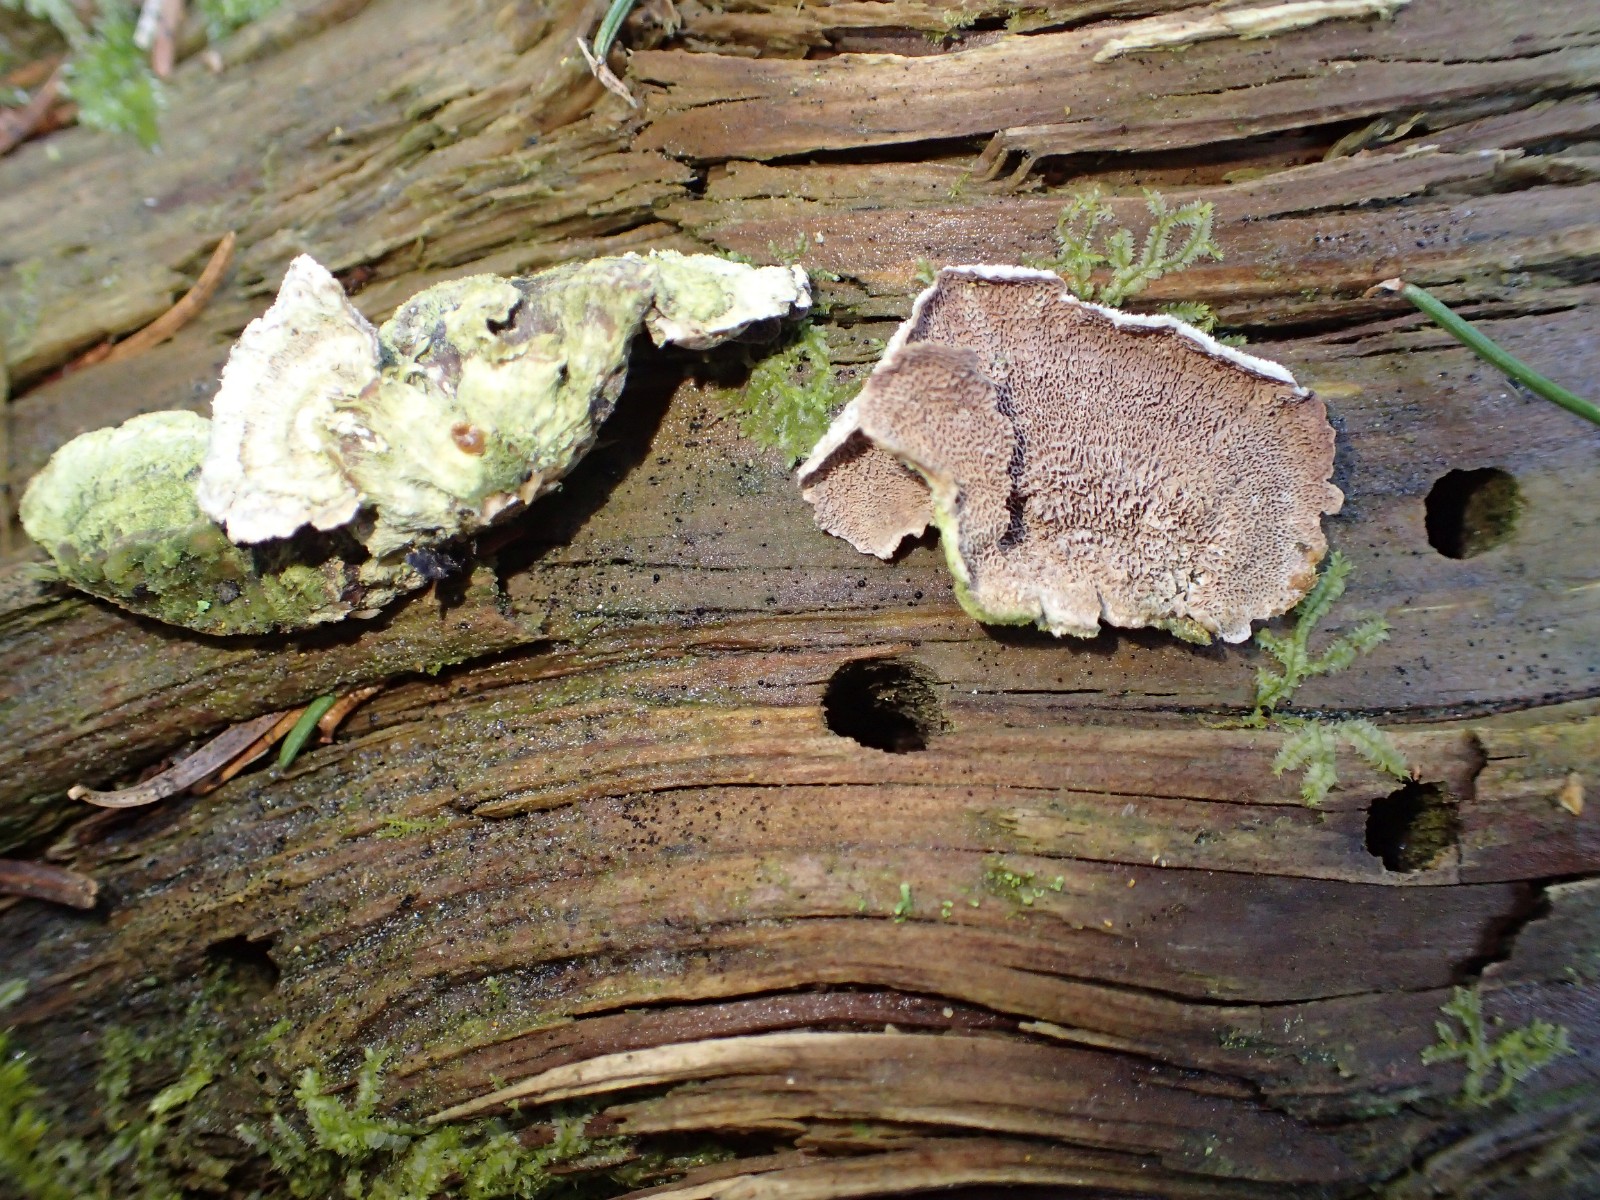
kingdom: Fungi
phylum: Basidiomycota
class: Agaricomycetes
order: Hymenochaetales
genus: Trichaptum
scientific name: Trichaptum abietinum
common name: almindelig violporesvamp
